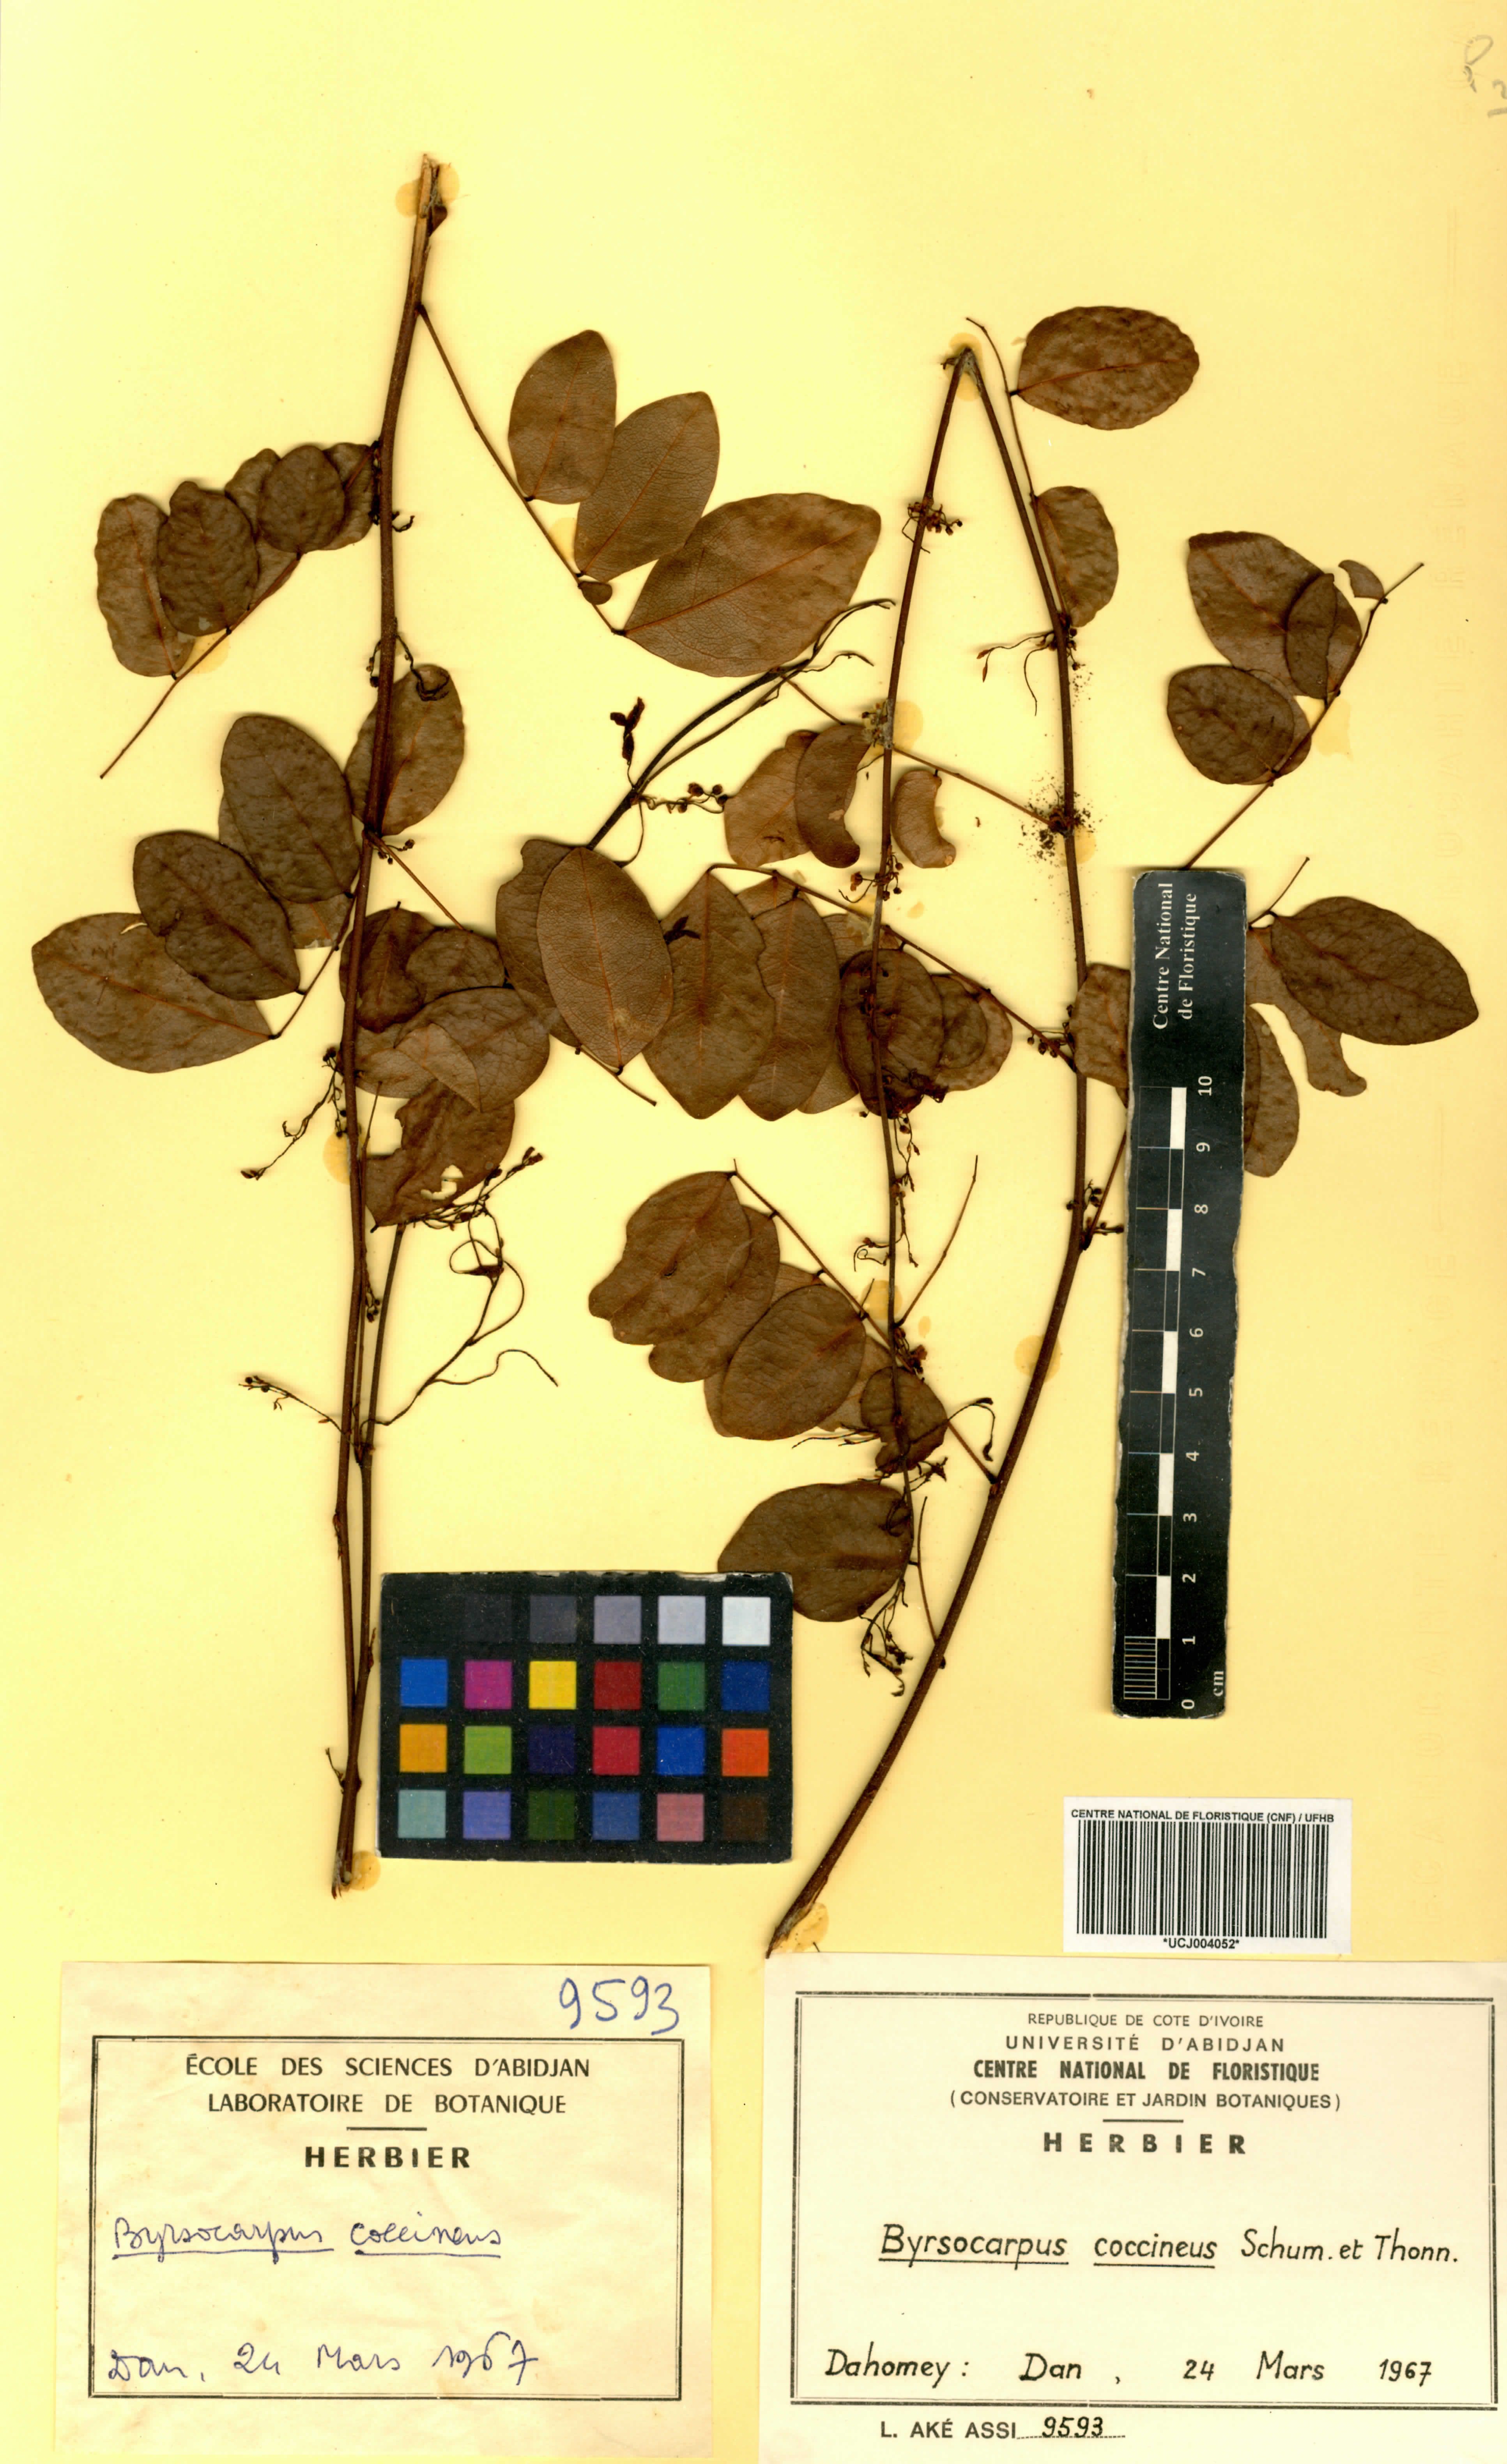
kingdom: Plantae
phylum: Tracheophyta
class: Magnoliopsida
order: Oxalidales
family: Connaraceae
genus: Rourea
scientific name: Rourea coccinea
